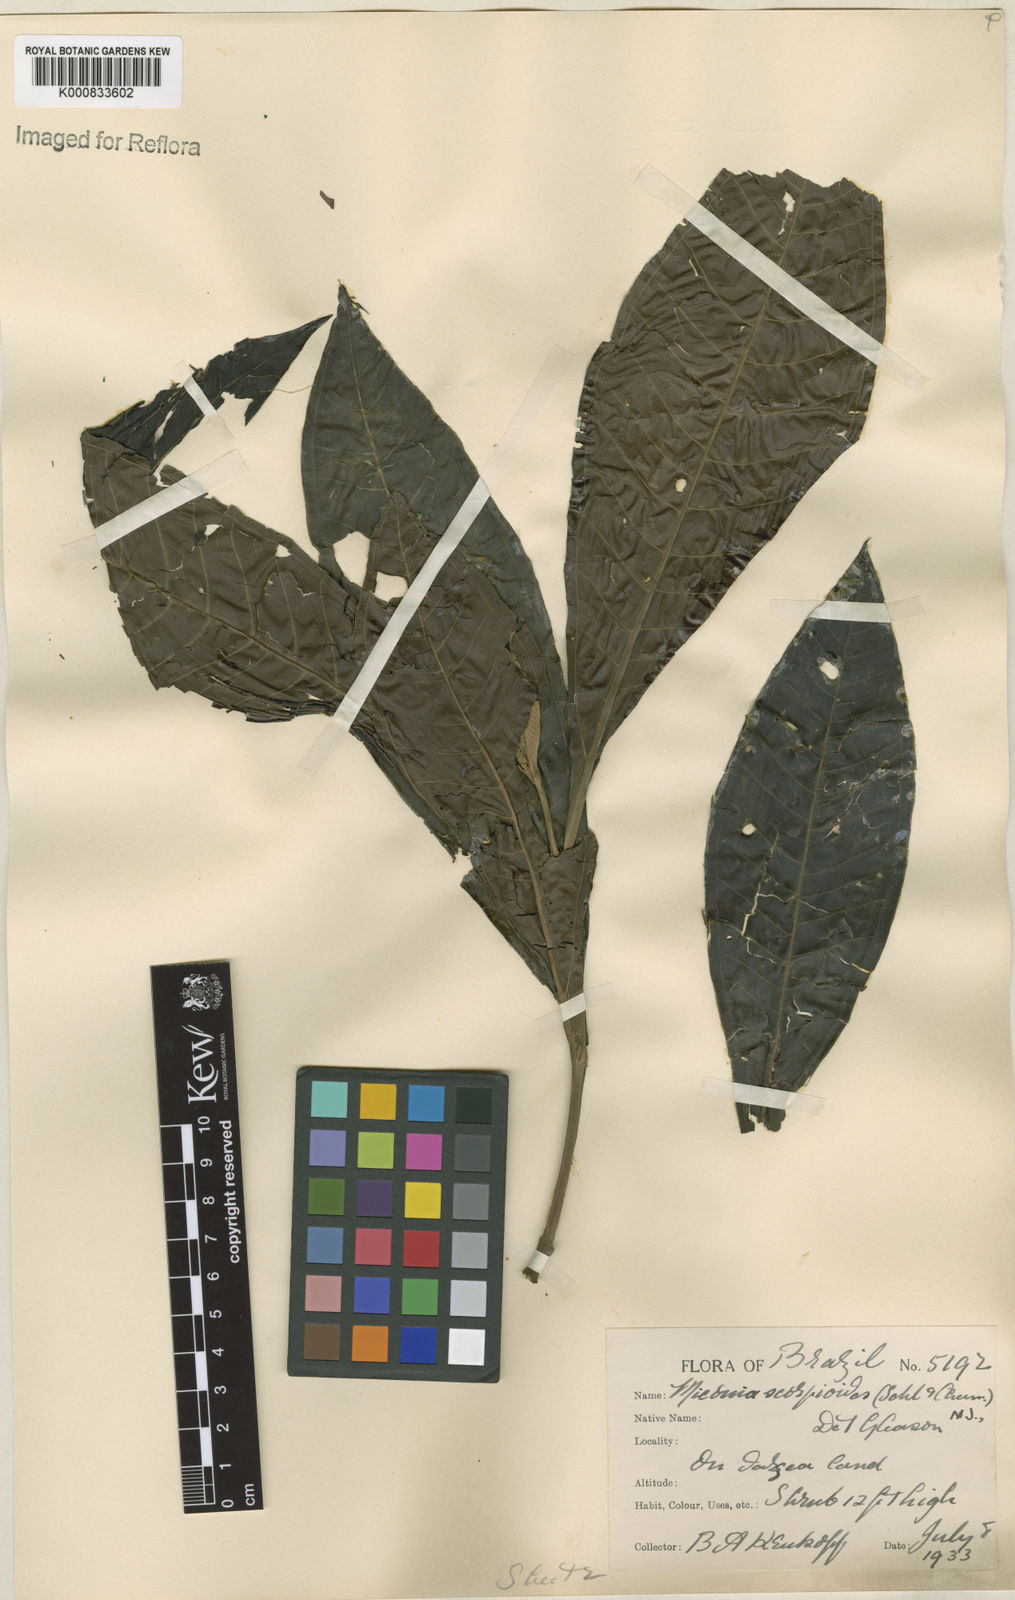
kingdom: Plantae
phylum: Tracheophyta
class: Magnoliopsida
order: Myrtales
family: Melastomataceae
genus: Miconia
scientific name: Miconia trinervia
